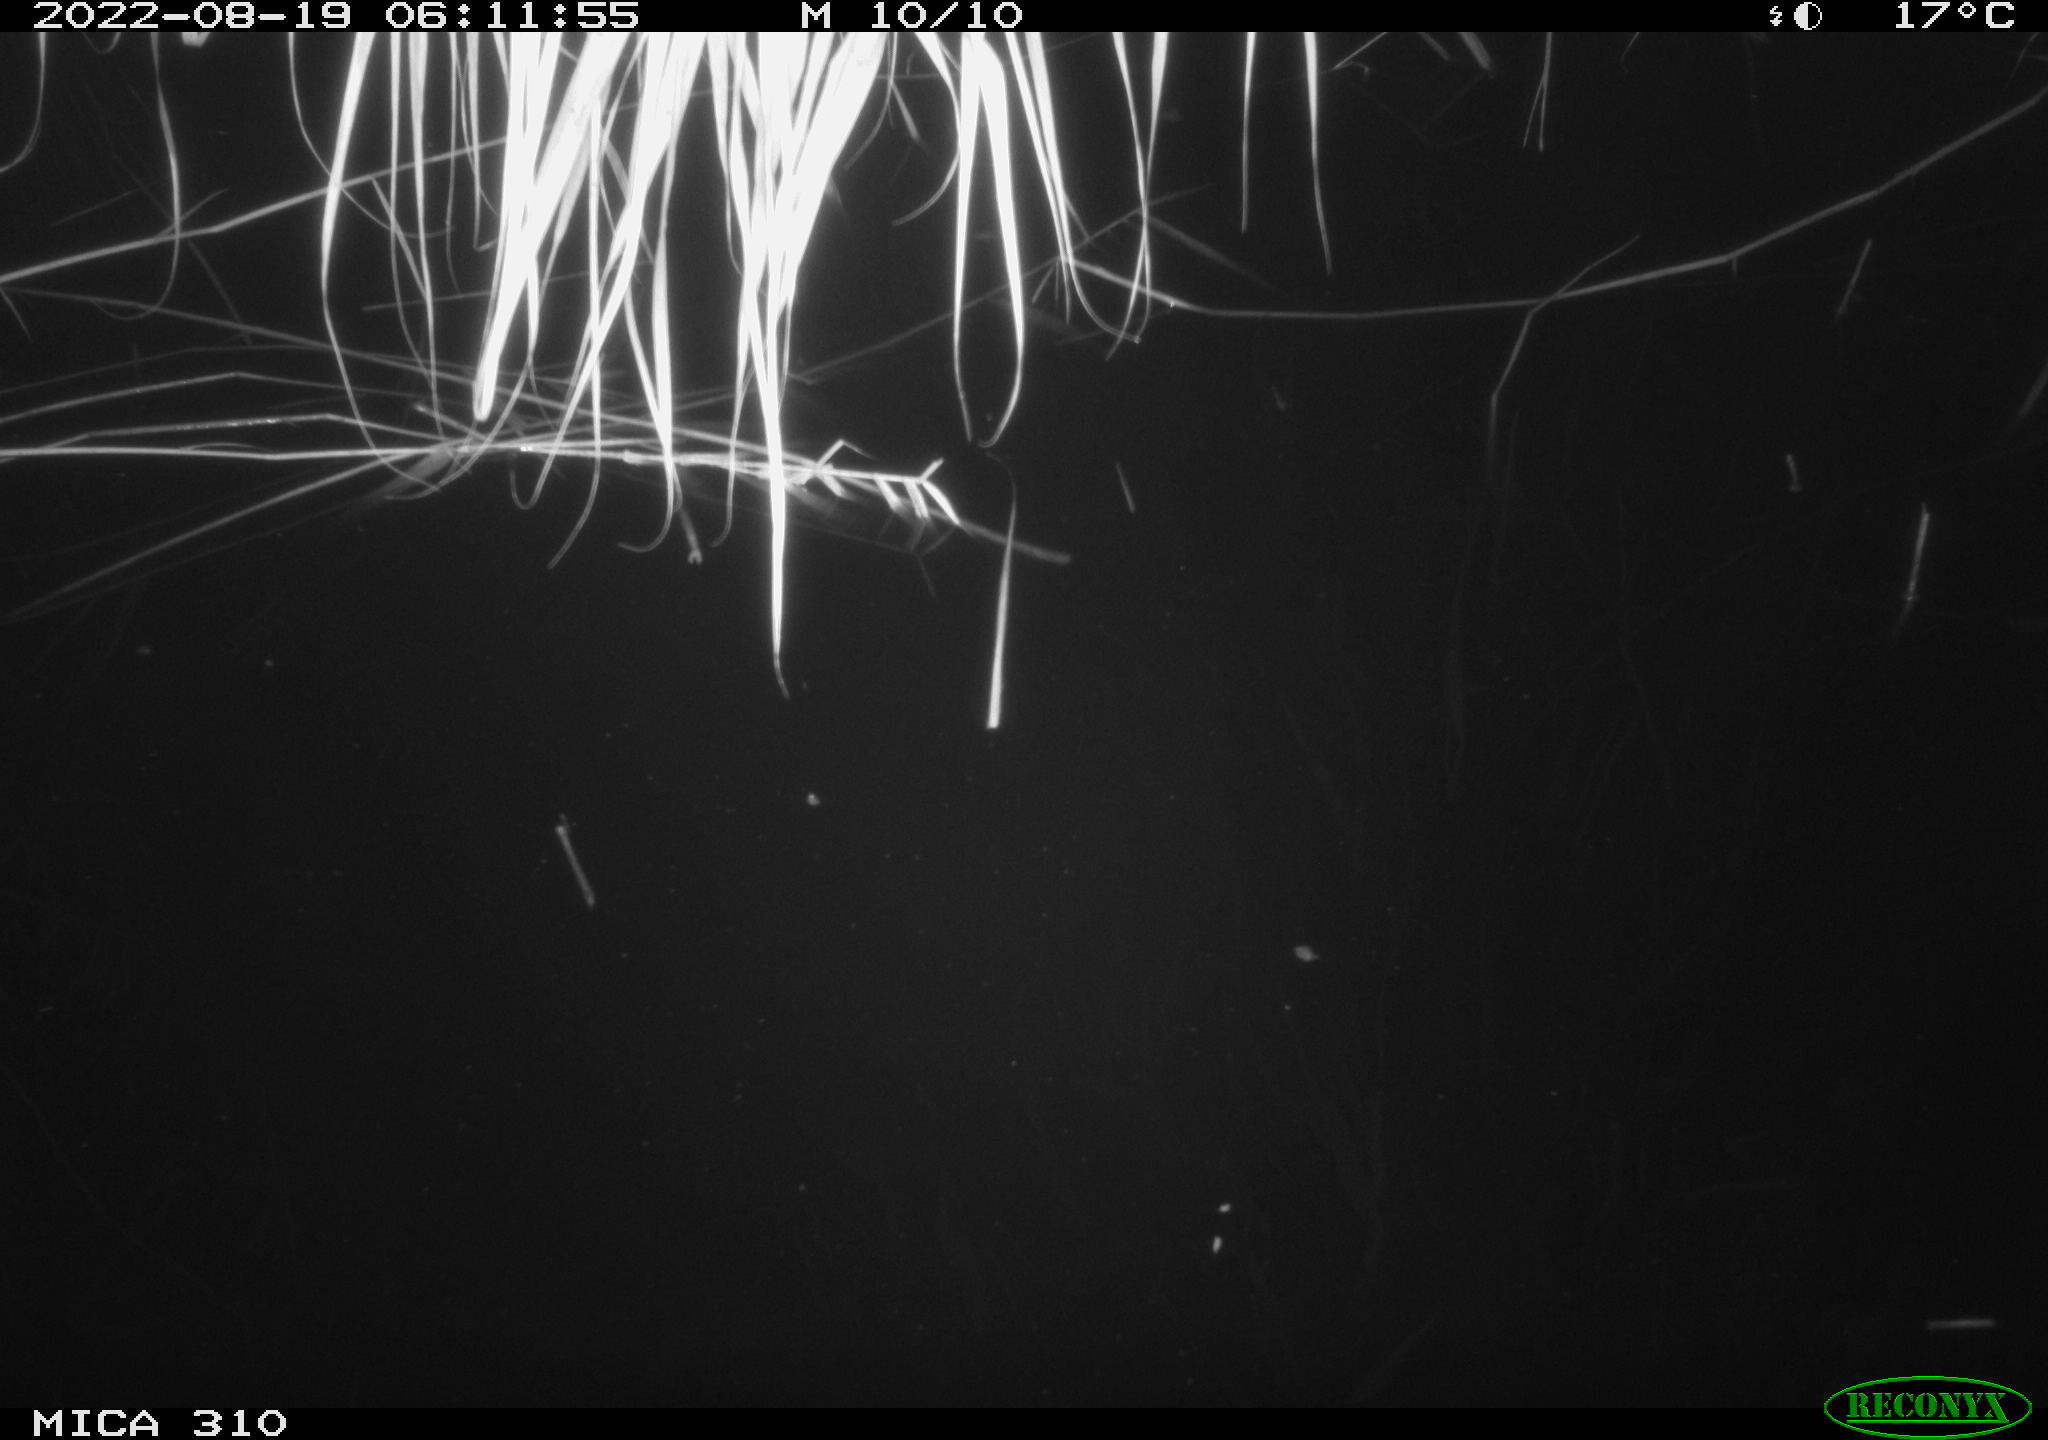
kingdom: Animalia
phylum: Chordata
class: Aves
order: Gruiformes
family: Rallidae
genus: Gallinula
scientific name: Gallinula chloropus
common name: Common moorhen
